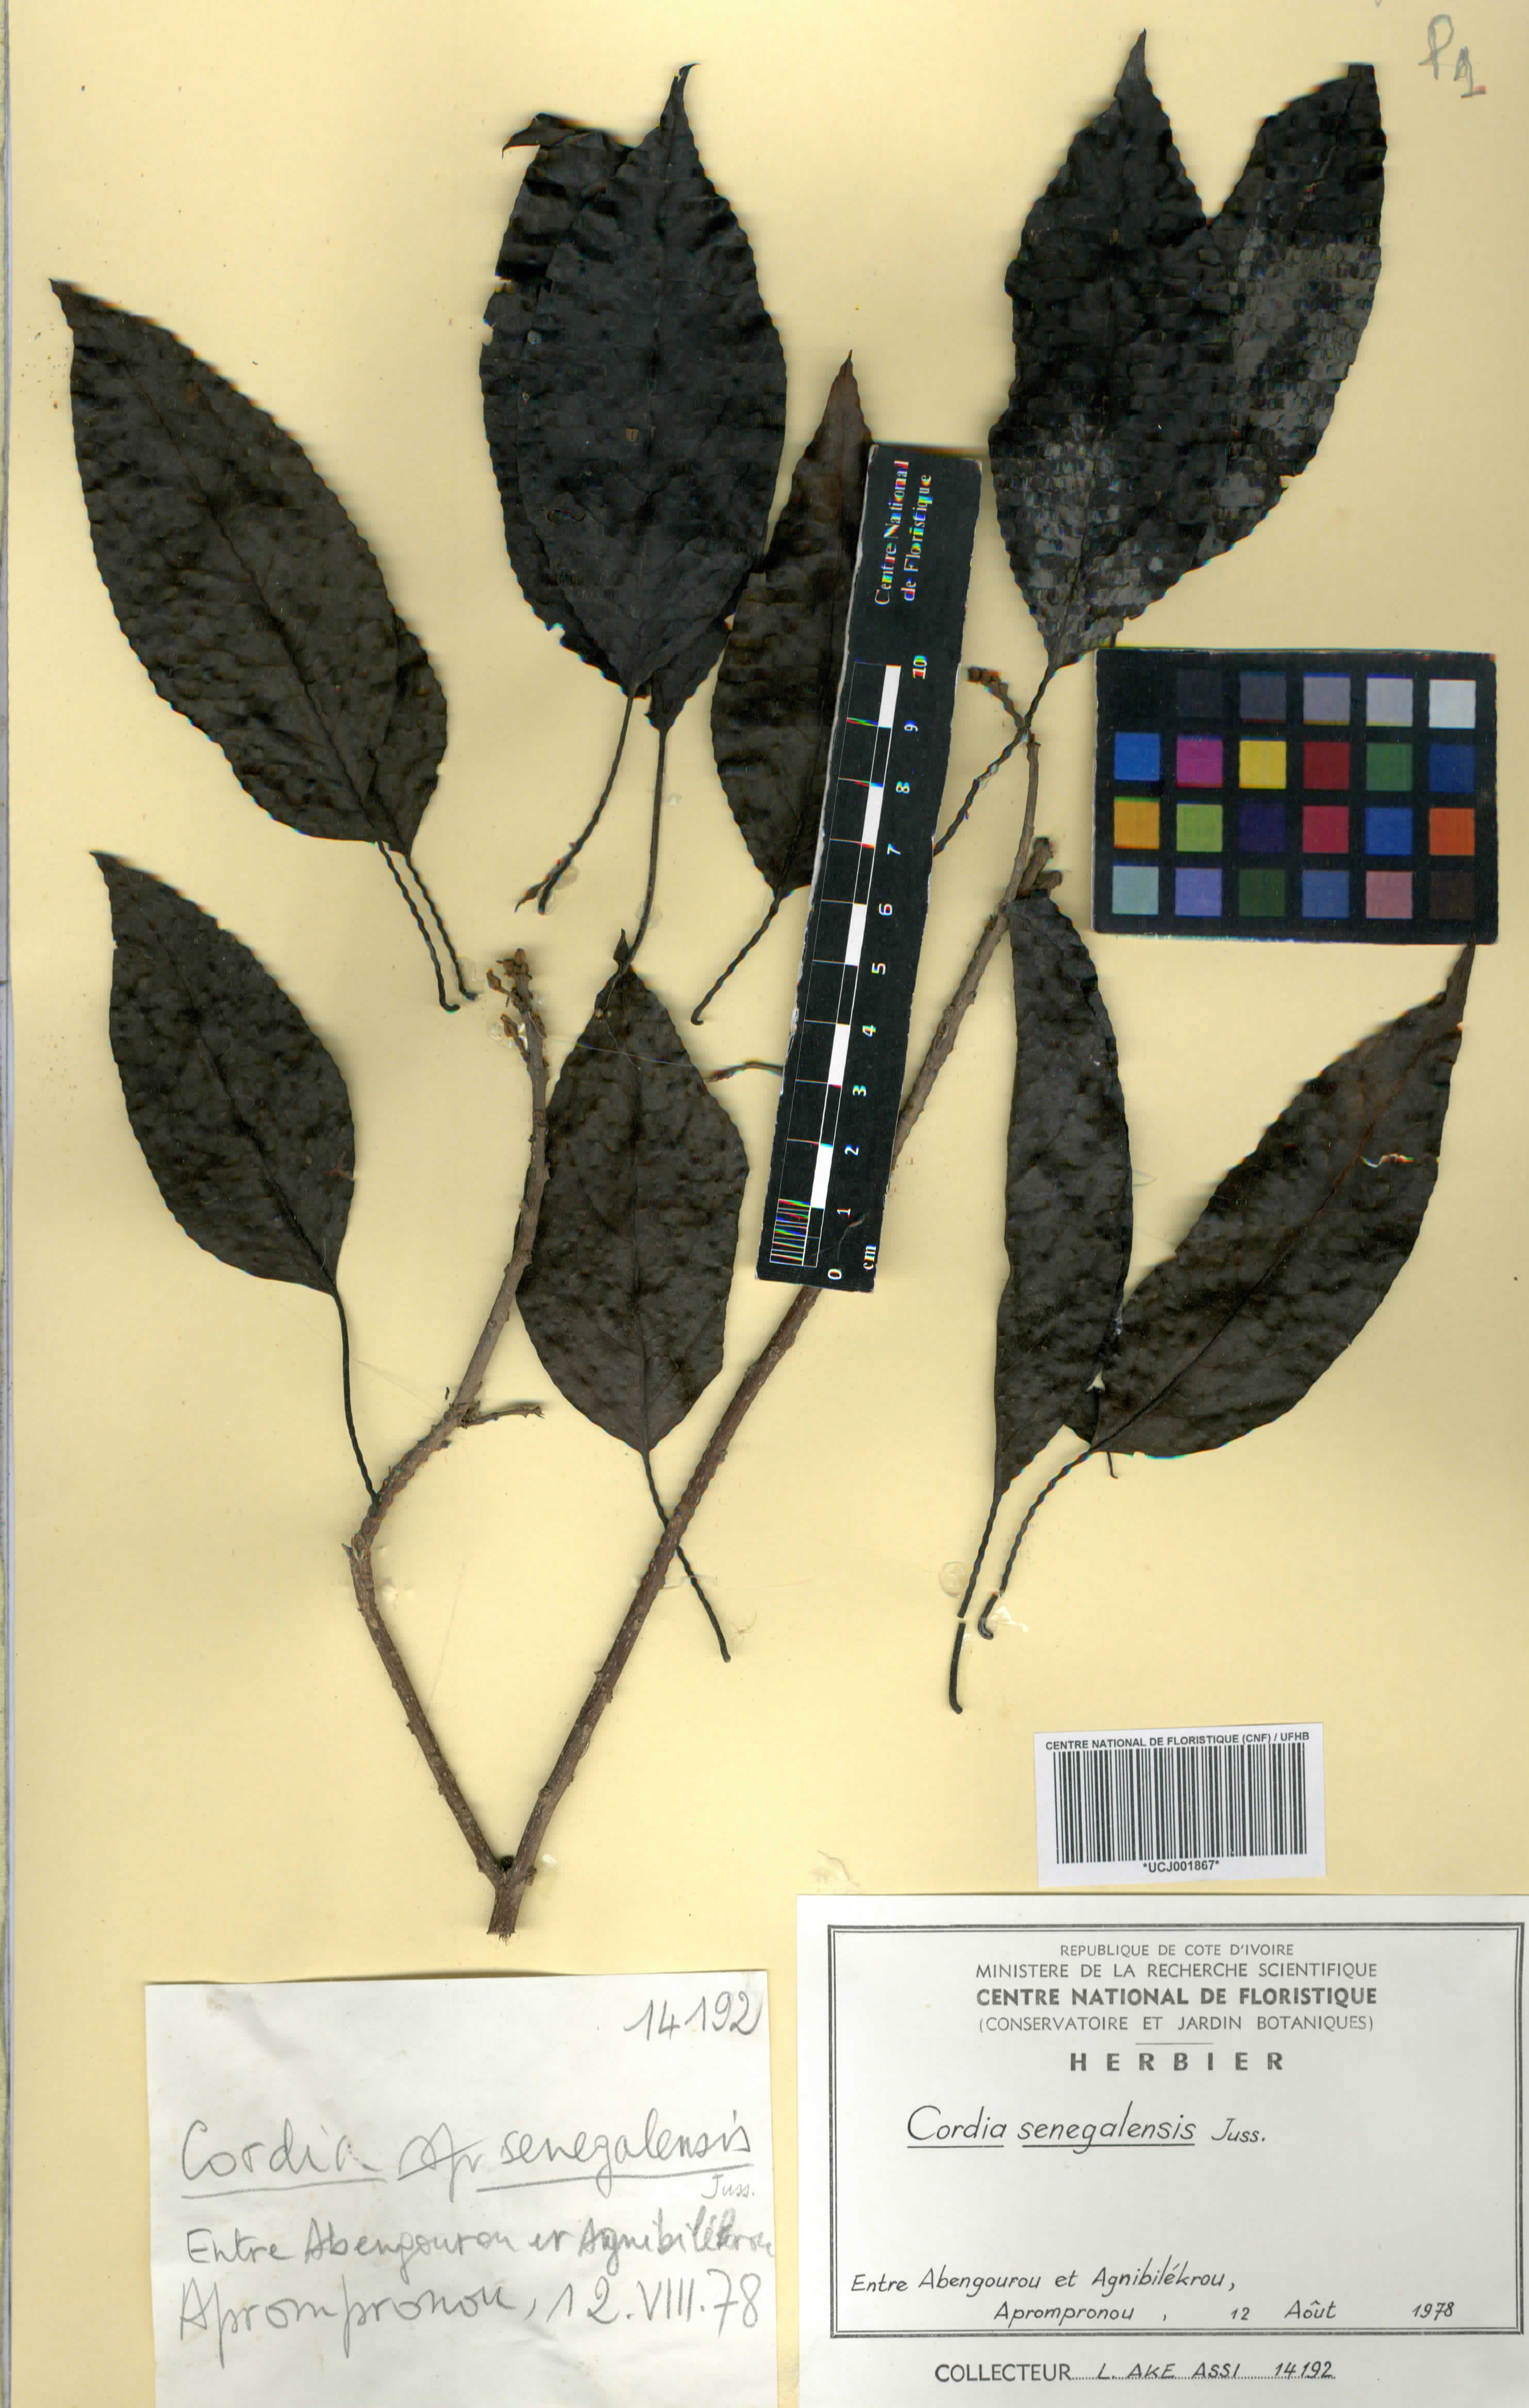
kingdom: Plantae
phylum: Tracheophyta
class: Magnoliopsida
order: Boraginales
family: Cordiaceae
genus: Cordia
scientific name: Cordia senegalensis
